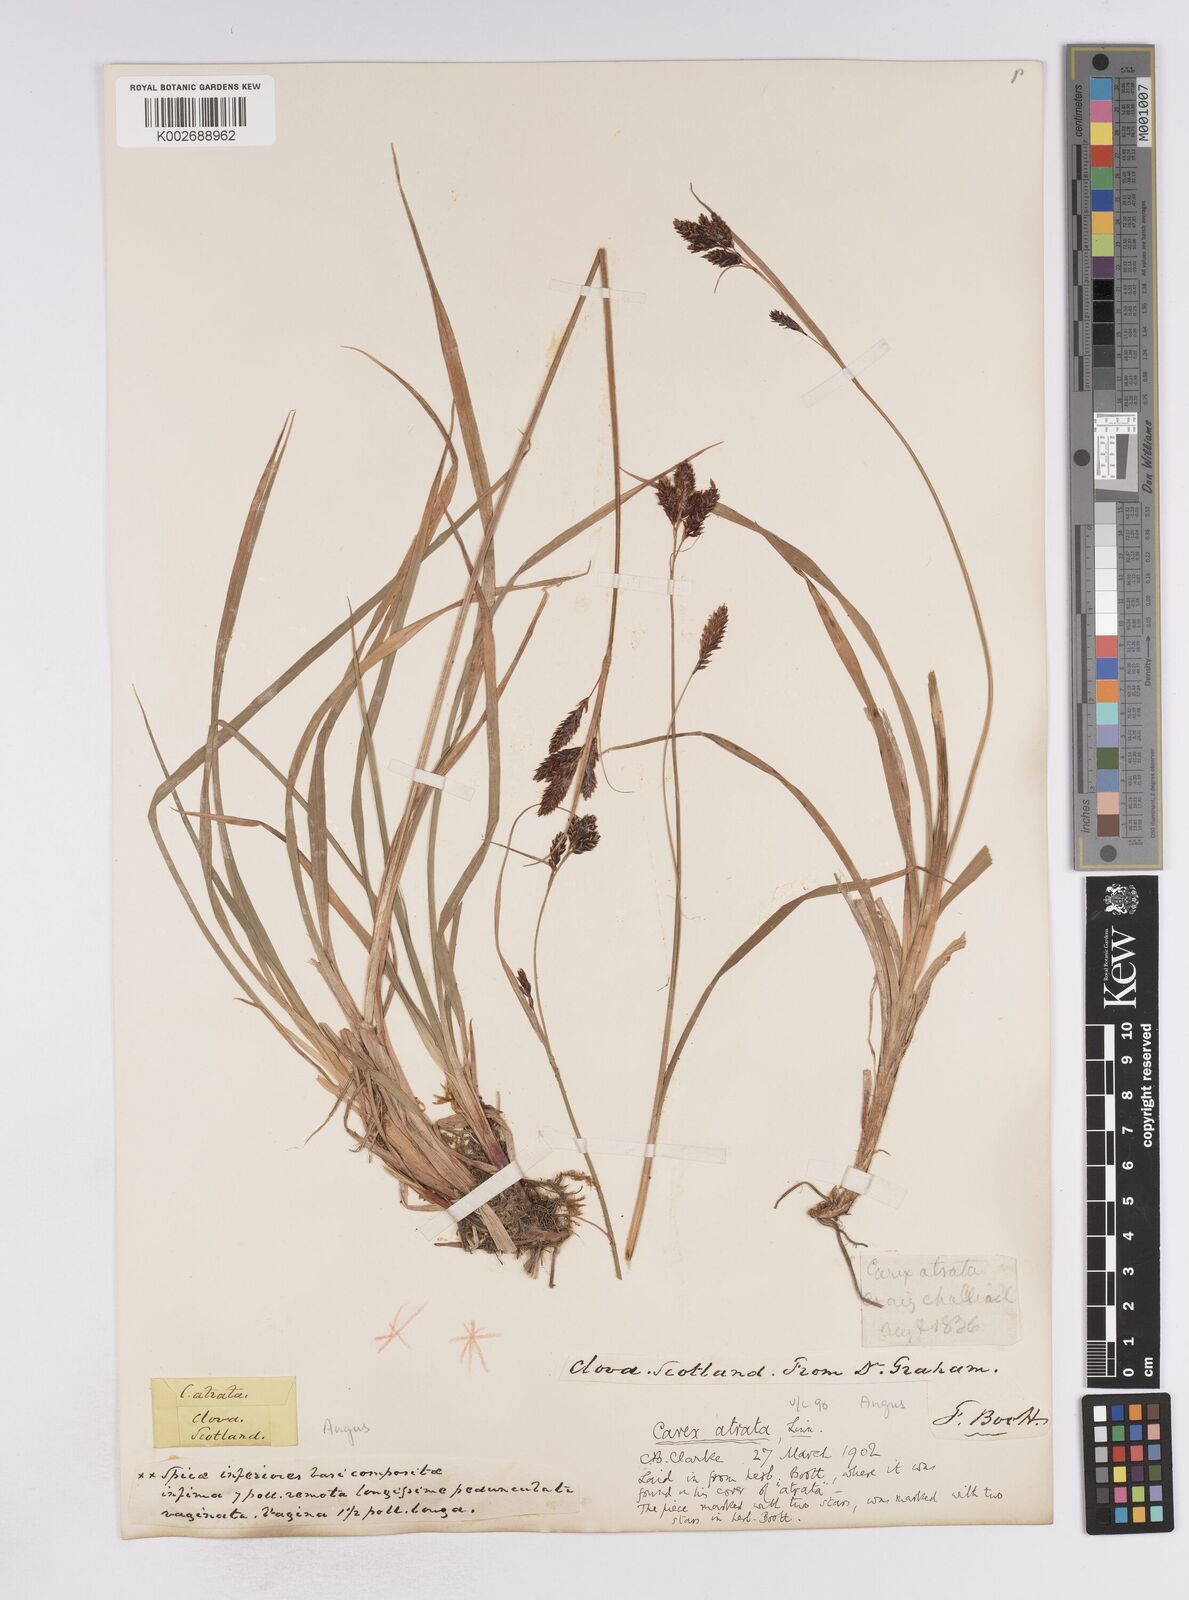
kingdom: Plantae
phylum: Tracheophyta
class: Liliopsida
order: Poales
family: Cyperaceae
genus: Carex
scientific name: Carex atrata
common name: Black alpine sedge
